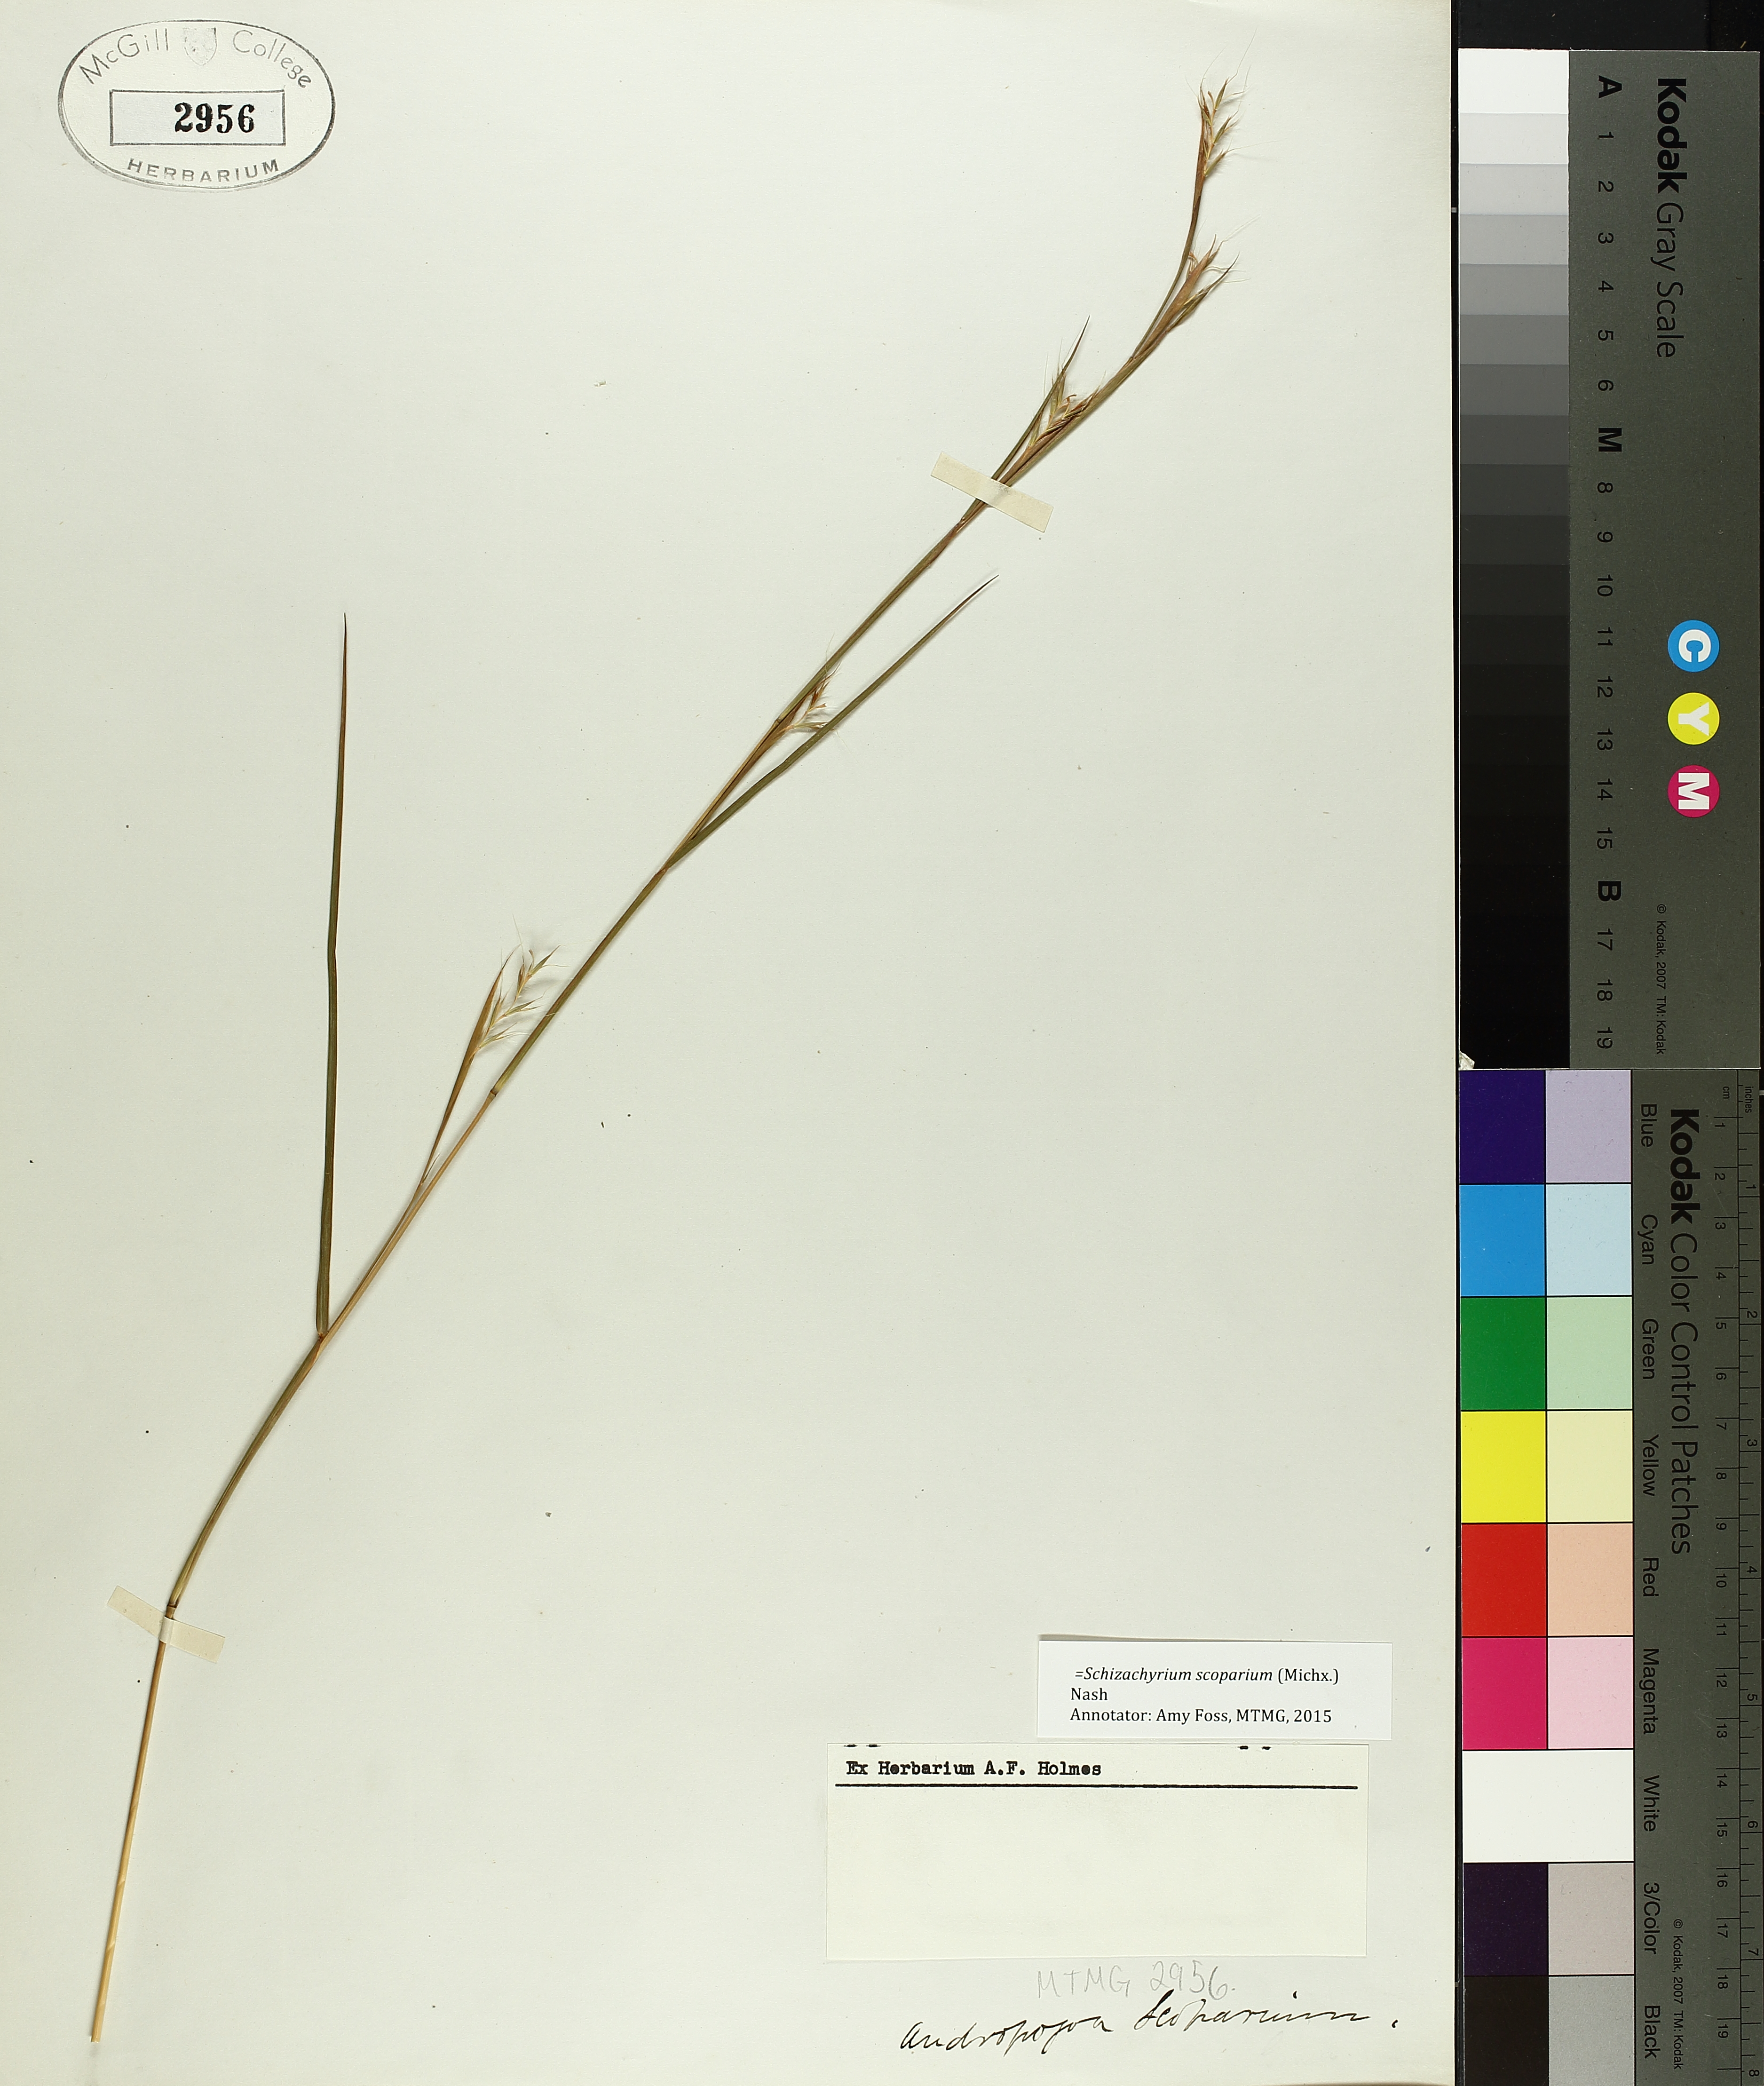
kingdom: Plantae
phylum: Tracheophyta
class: Liliopsida
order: Poales
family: Poaceae
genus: Schizachyrium
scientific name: Schizachyrium scoparium
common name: Little bluestem
